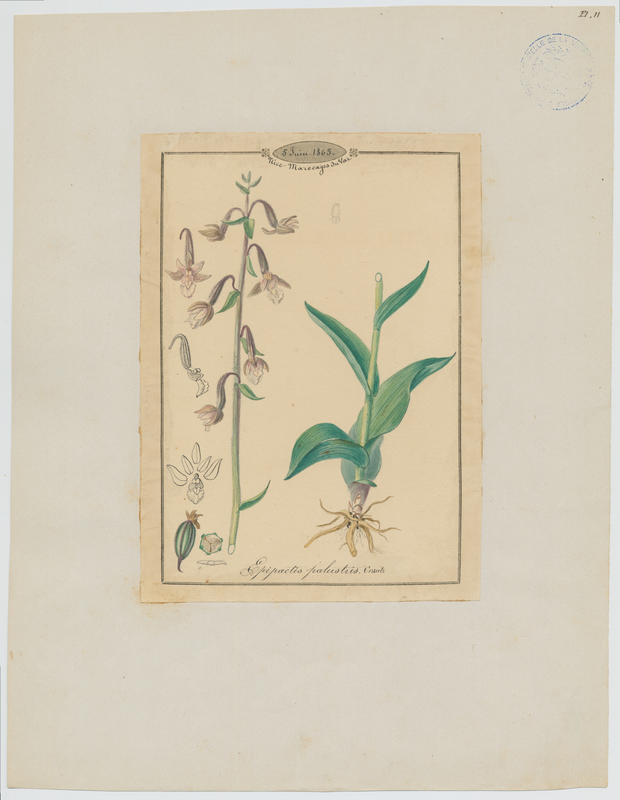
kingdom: Plantae
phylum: Tracheophyta
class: Liliopsida
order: Asparagales
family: Orchidaceae
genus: Epipactis
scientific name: Epipactis palustris
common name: Marsh helleborine
